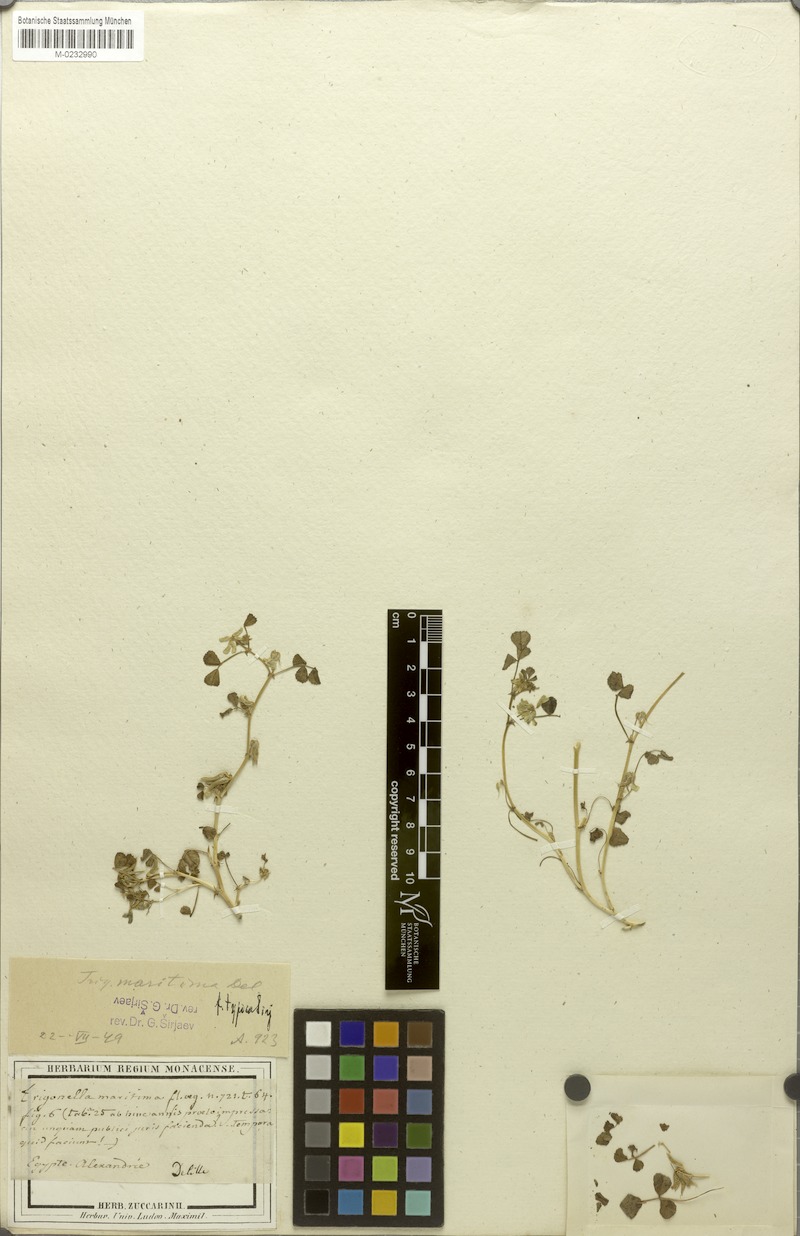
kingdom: Plantae
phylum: Tracheophyta
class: Magnoliopsida
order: Fabales
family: Fabaceae
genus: Trigonella
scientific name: Trigonella maritima
